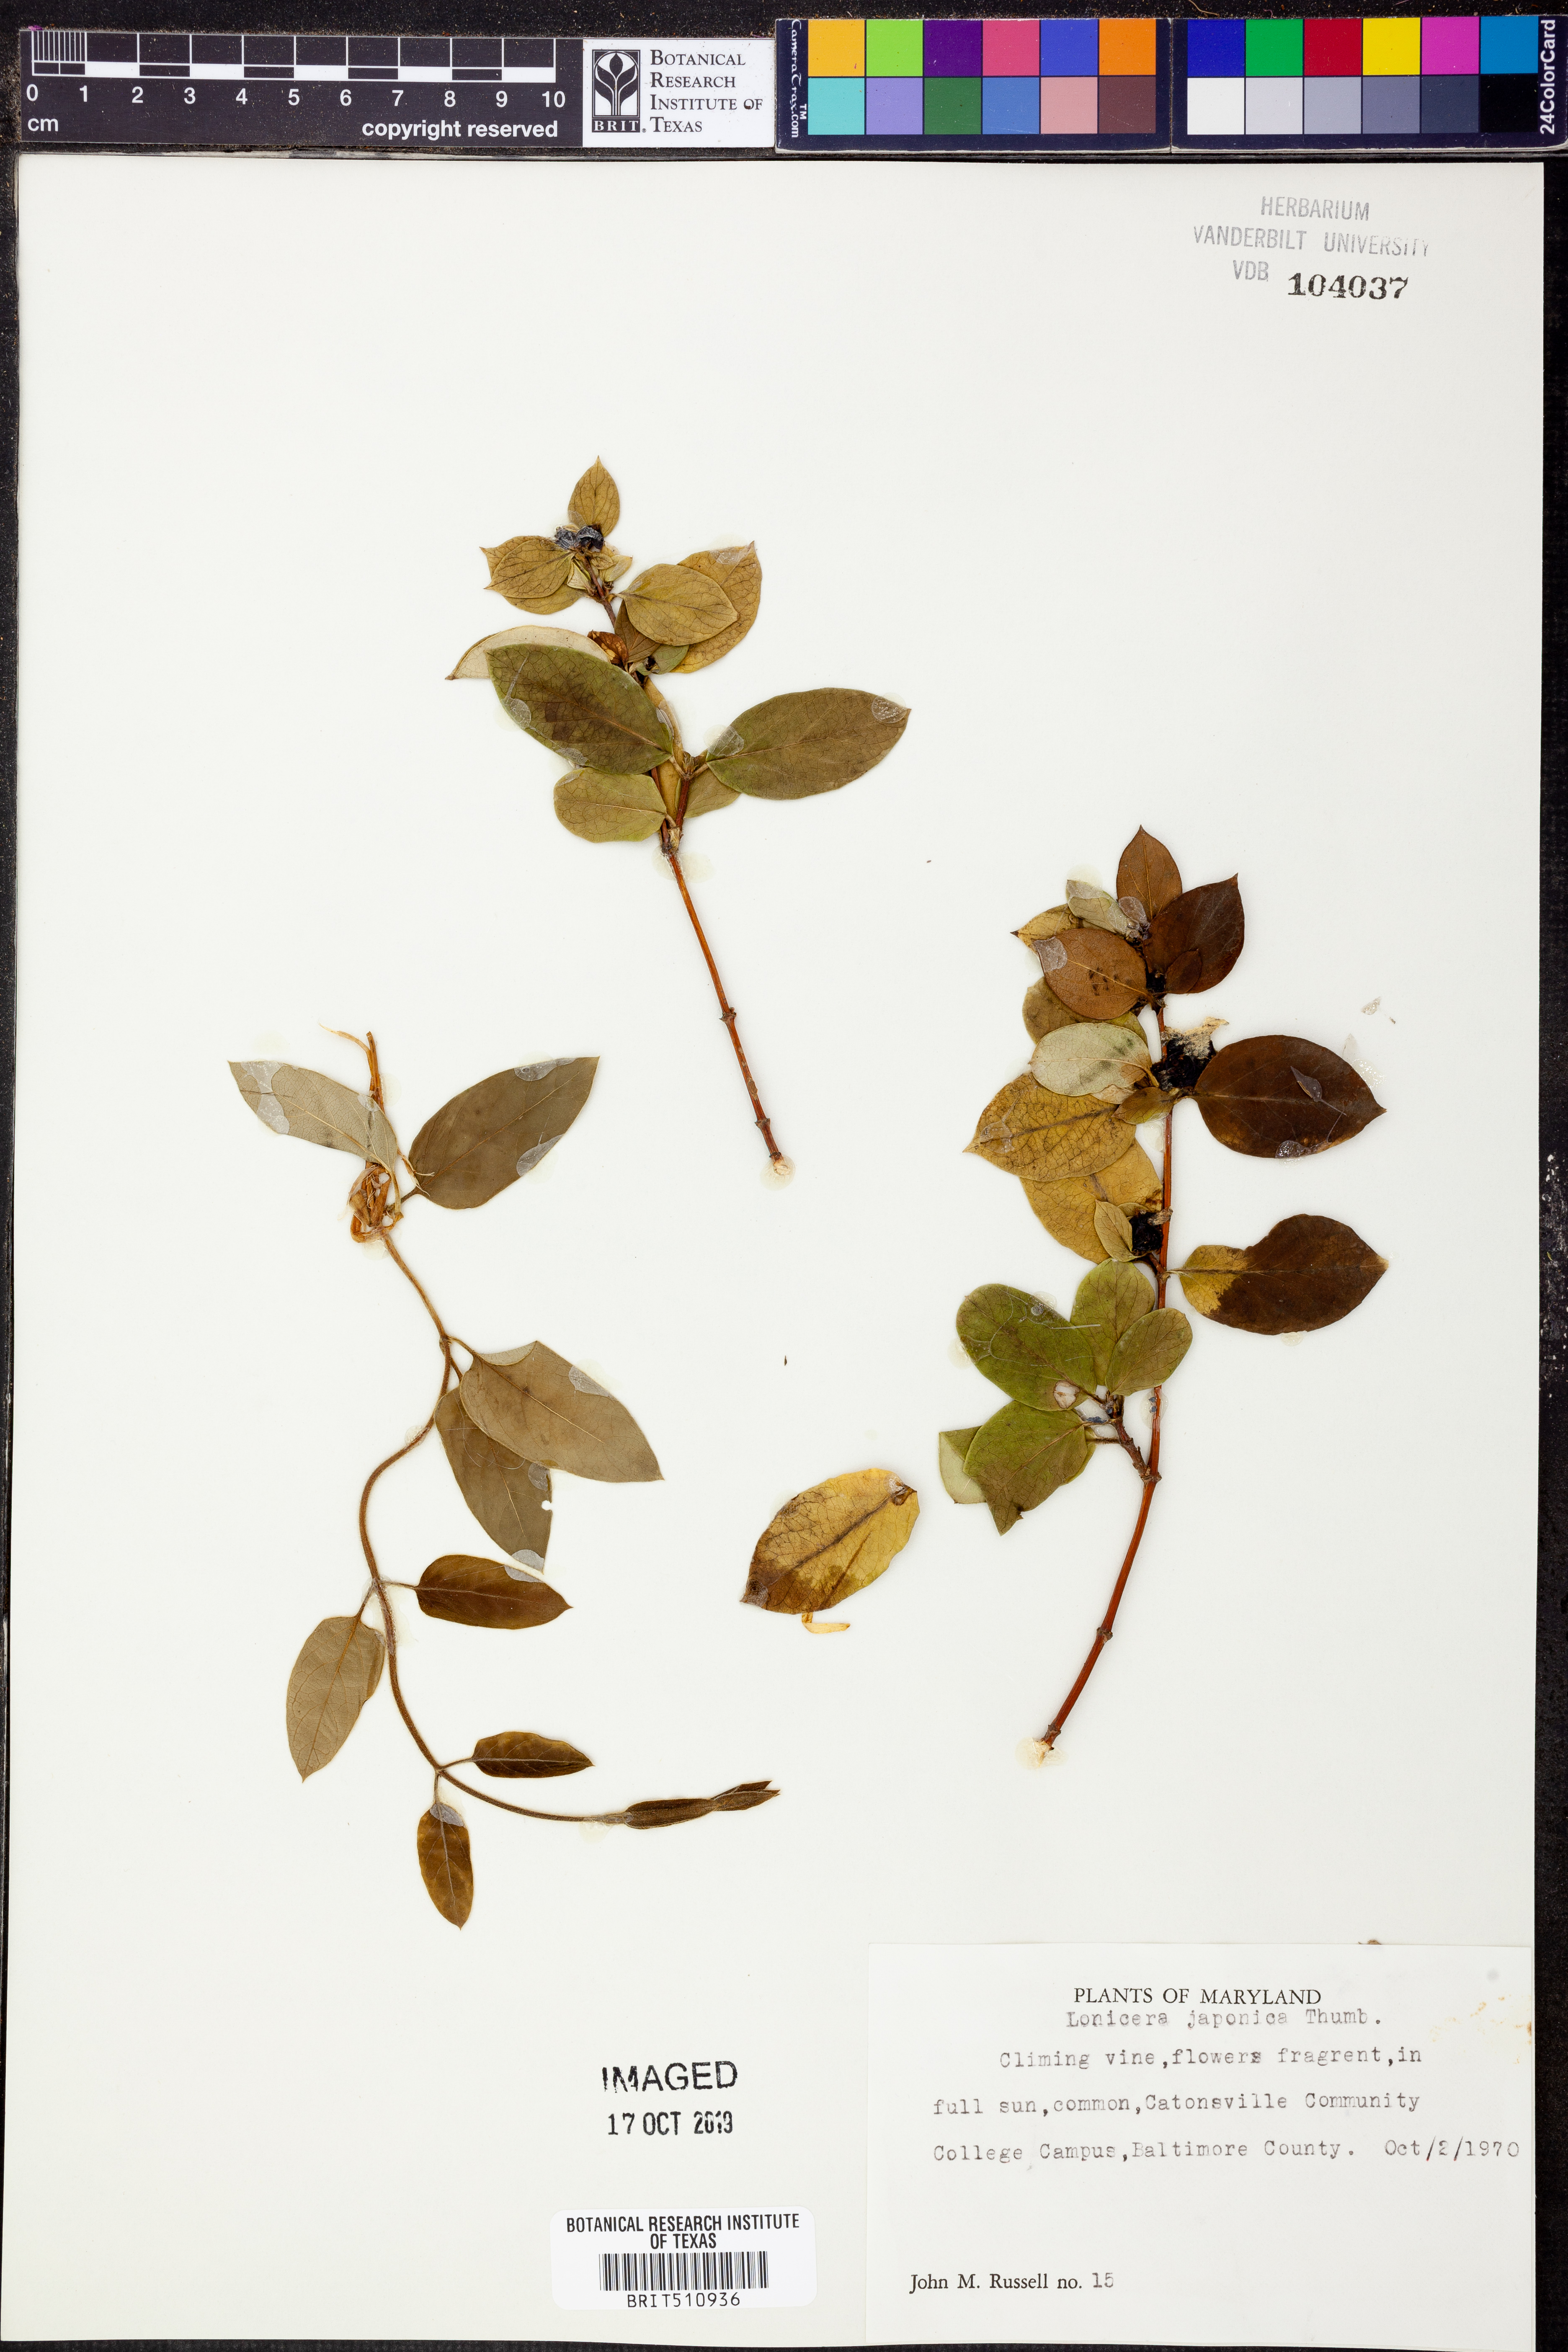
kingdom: Plantae
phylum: Tracheophyta
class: Magnoliopsida
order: Dipsacales
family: Caprifoliaceae
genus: Lonicera
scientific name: Lonicera japonica
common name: Japanese honeysuckle
